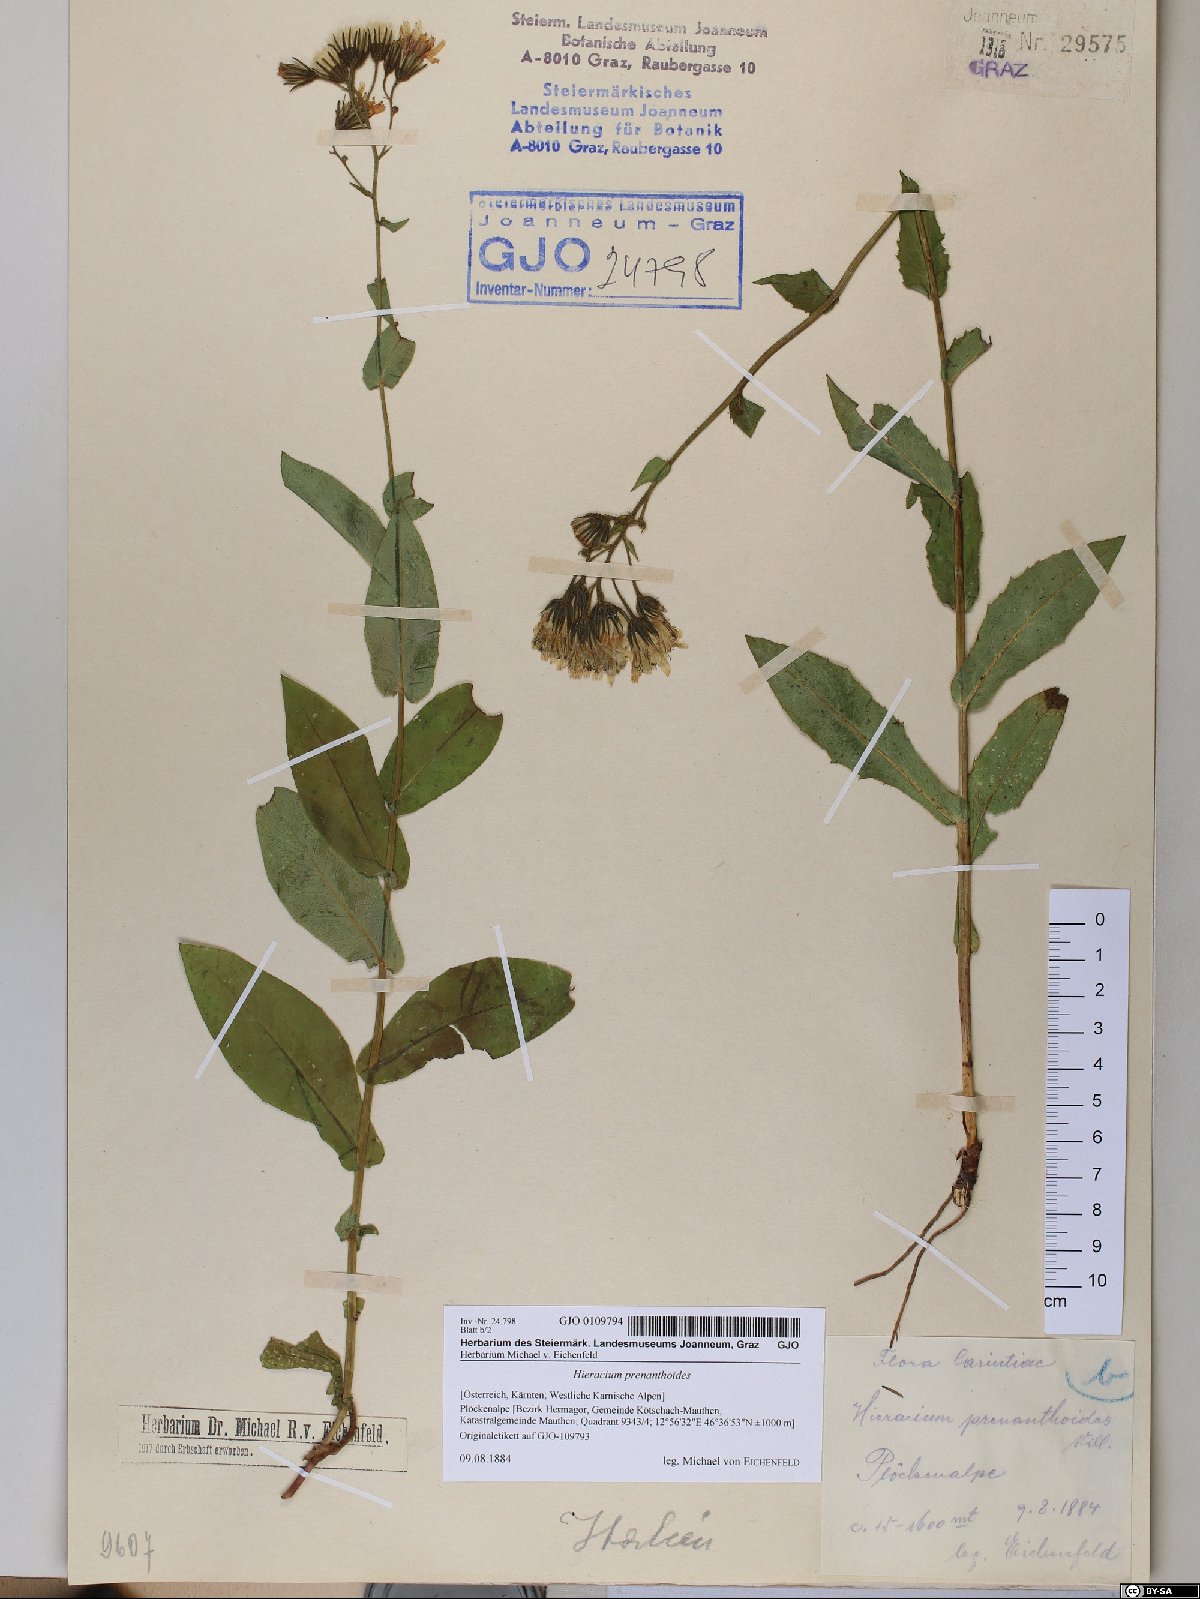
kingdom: Plantae
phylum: Tracheophyta
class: Magnoliopsida
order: Asterales
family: Asteraceae
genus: Hieracium
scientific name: Hieracium prenanthoides
